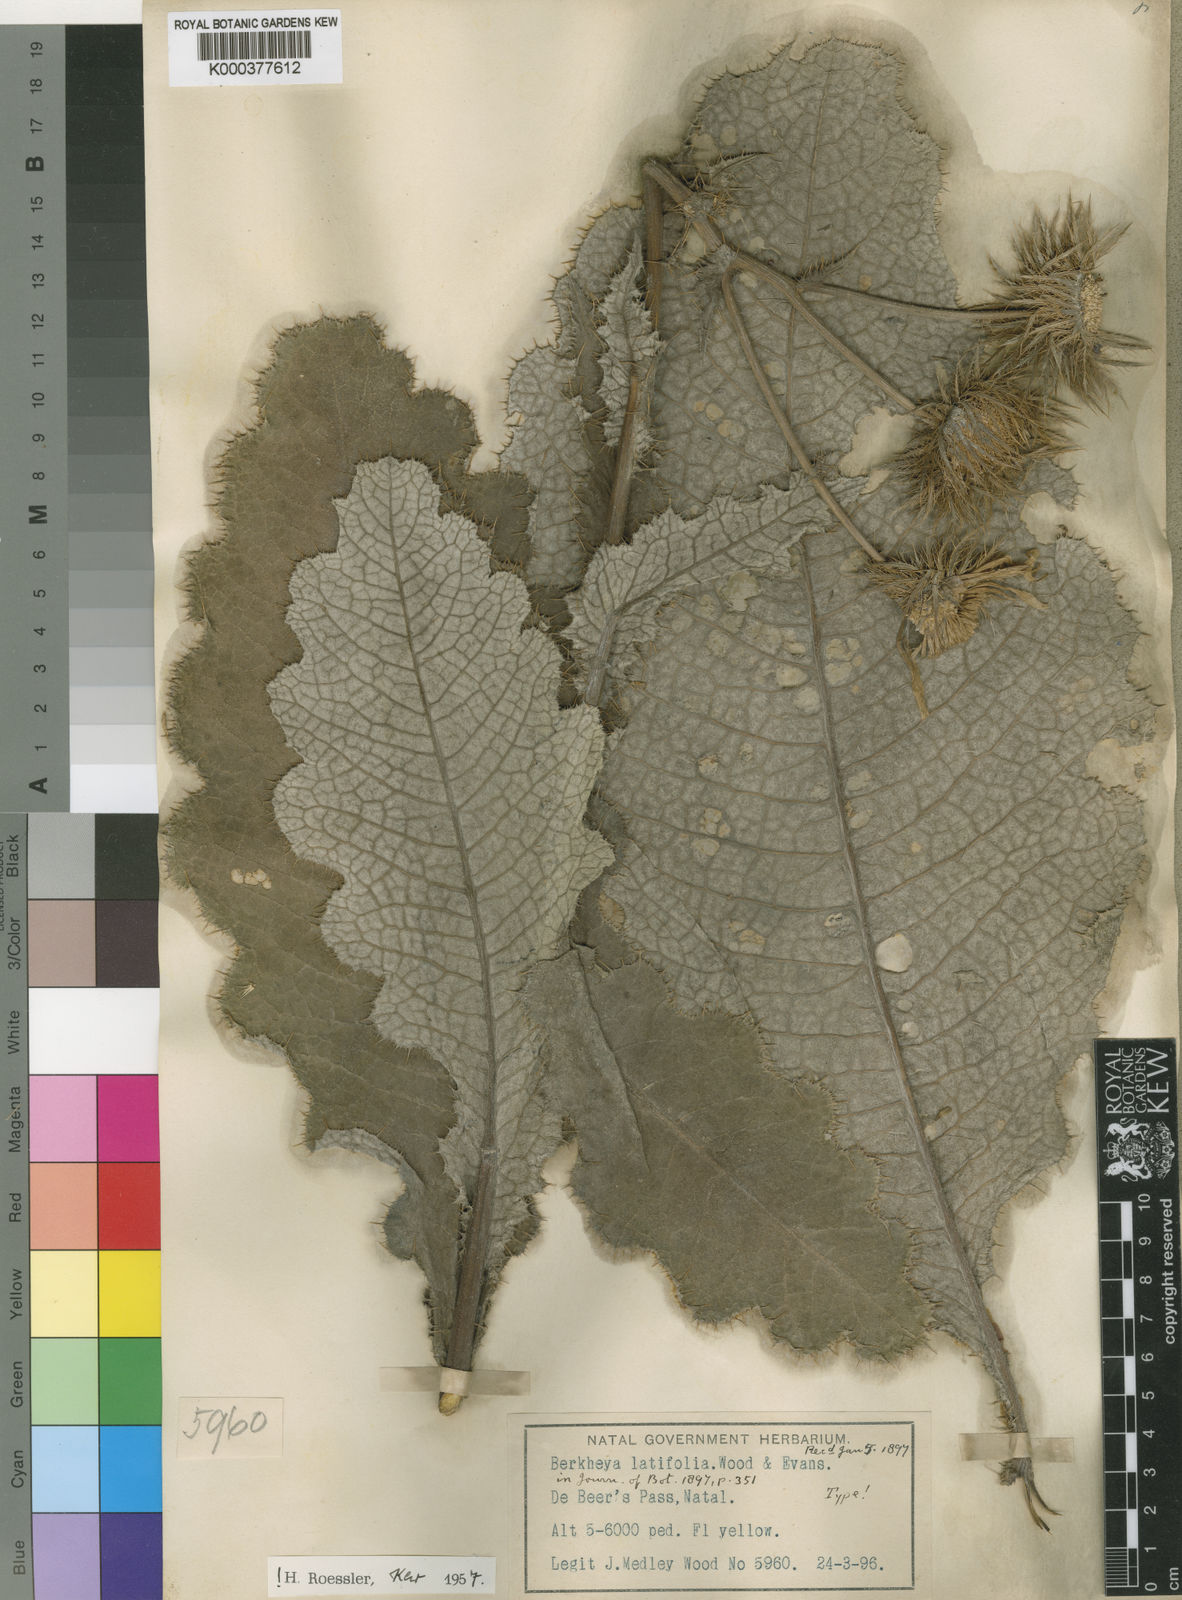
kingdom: Plantae
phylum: Tracheophyta
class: Magnoliopsida
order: Asterales
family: Asteraceae
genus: Berkheya
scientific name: Berkheya latifolia
